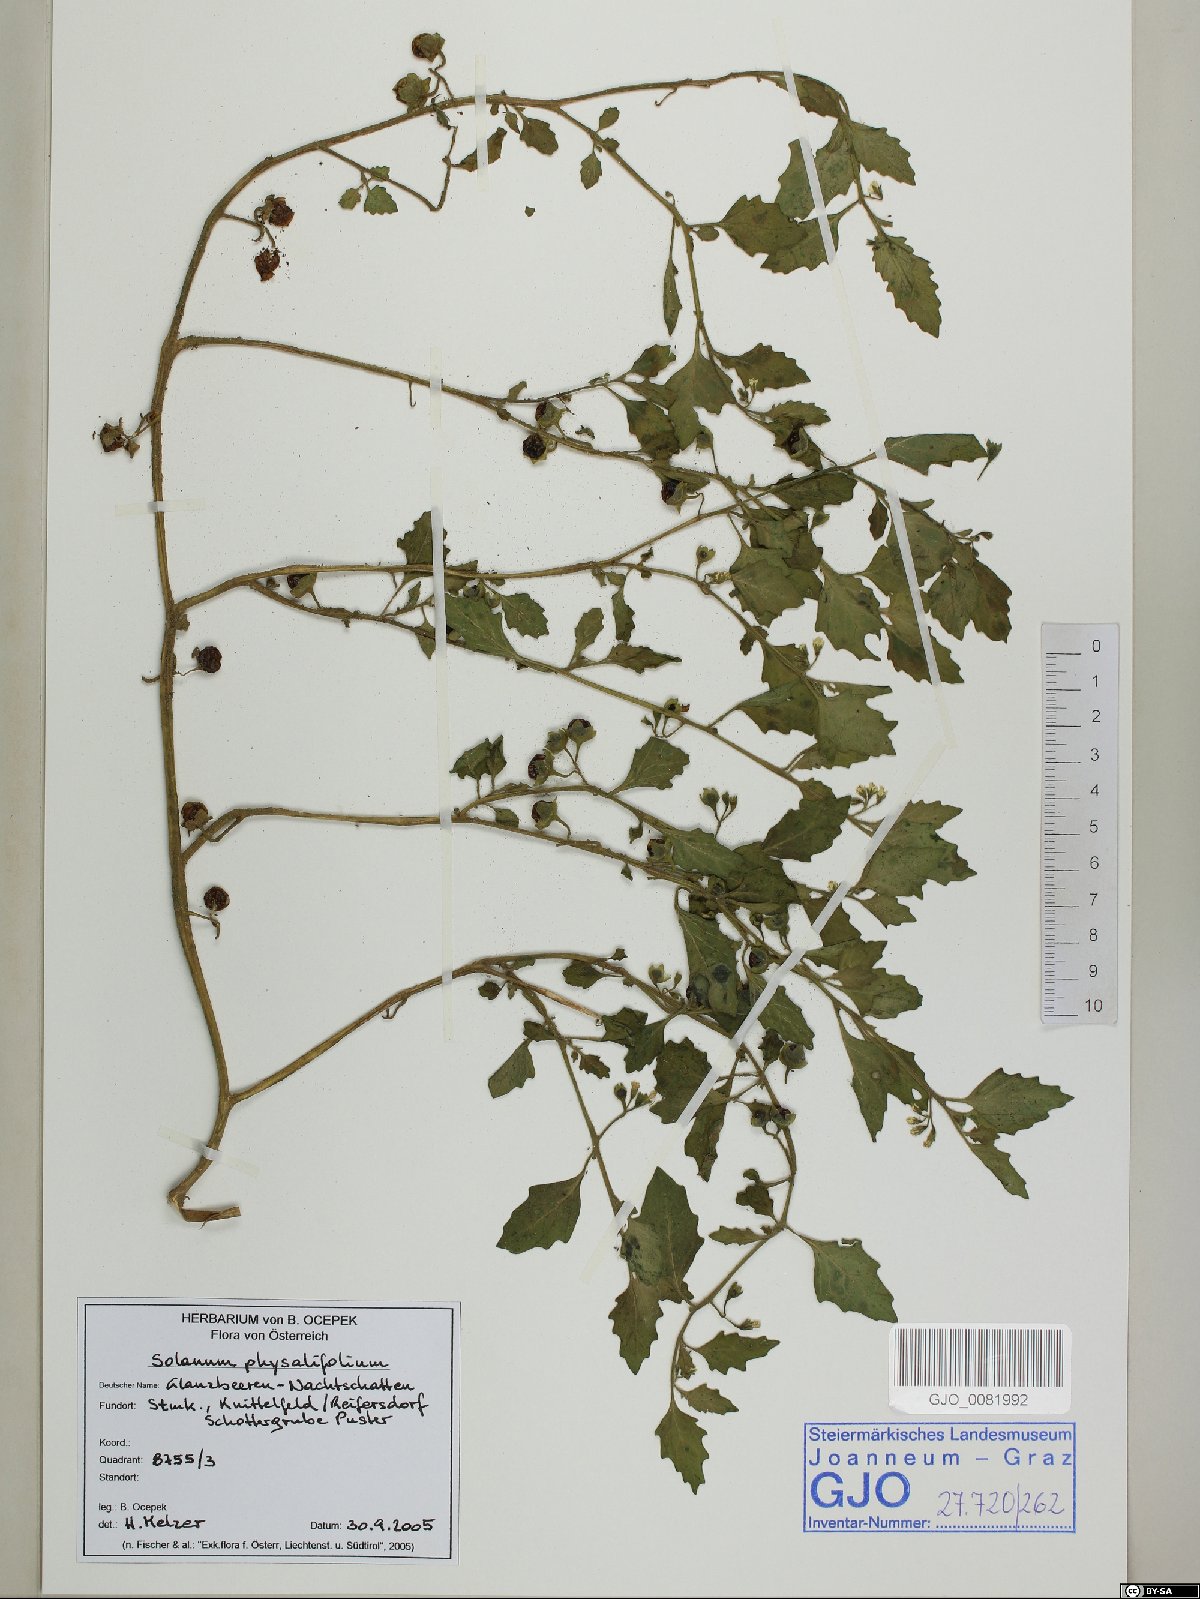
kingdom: Plantae
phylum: Tracheophyta
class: Magnoliopsida
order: Solanales
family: Solanaceae
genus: Solanum
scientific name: Solanum physalifolium
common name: Green nightshade
